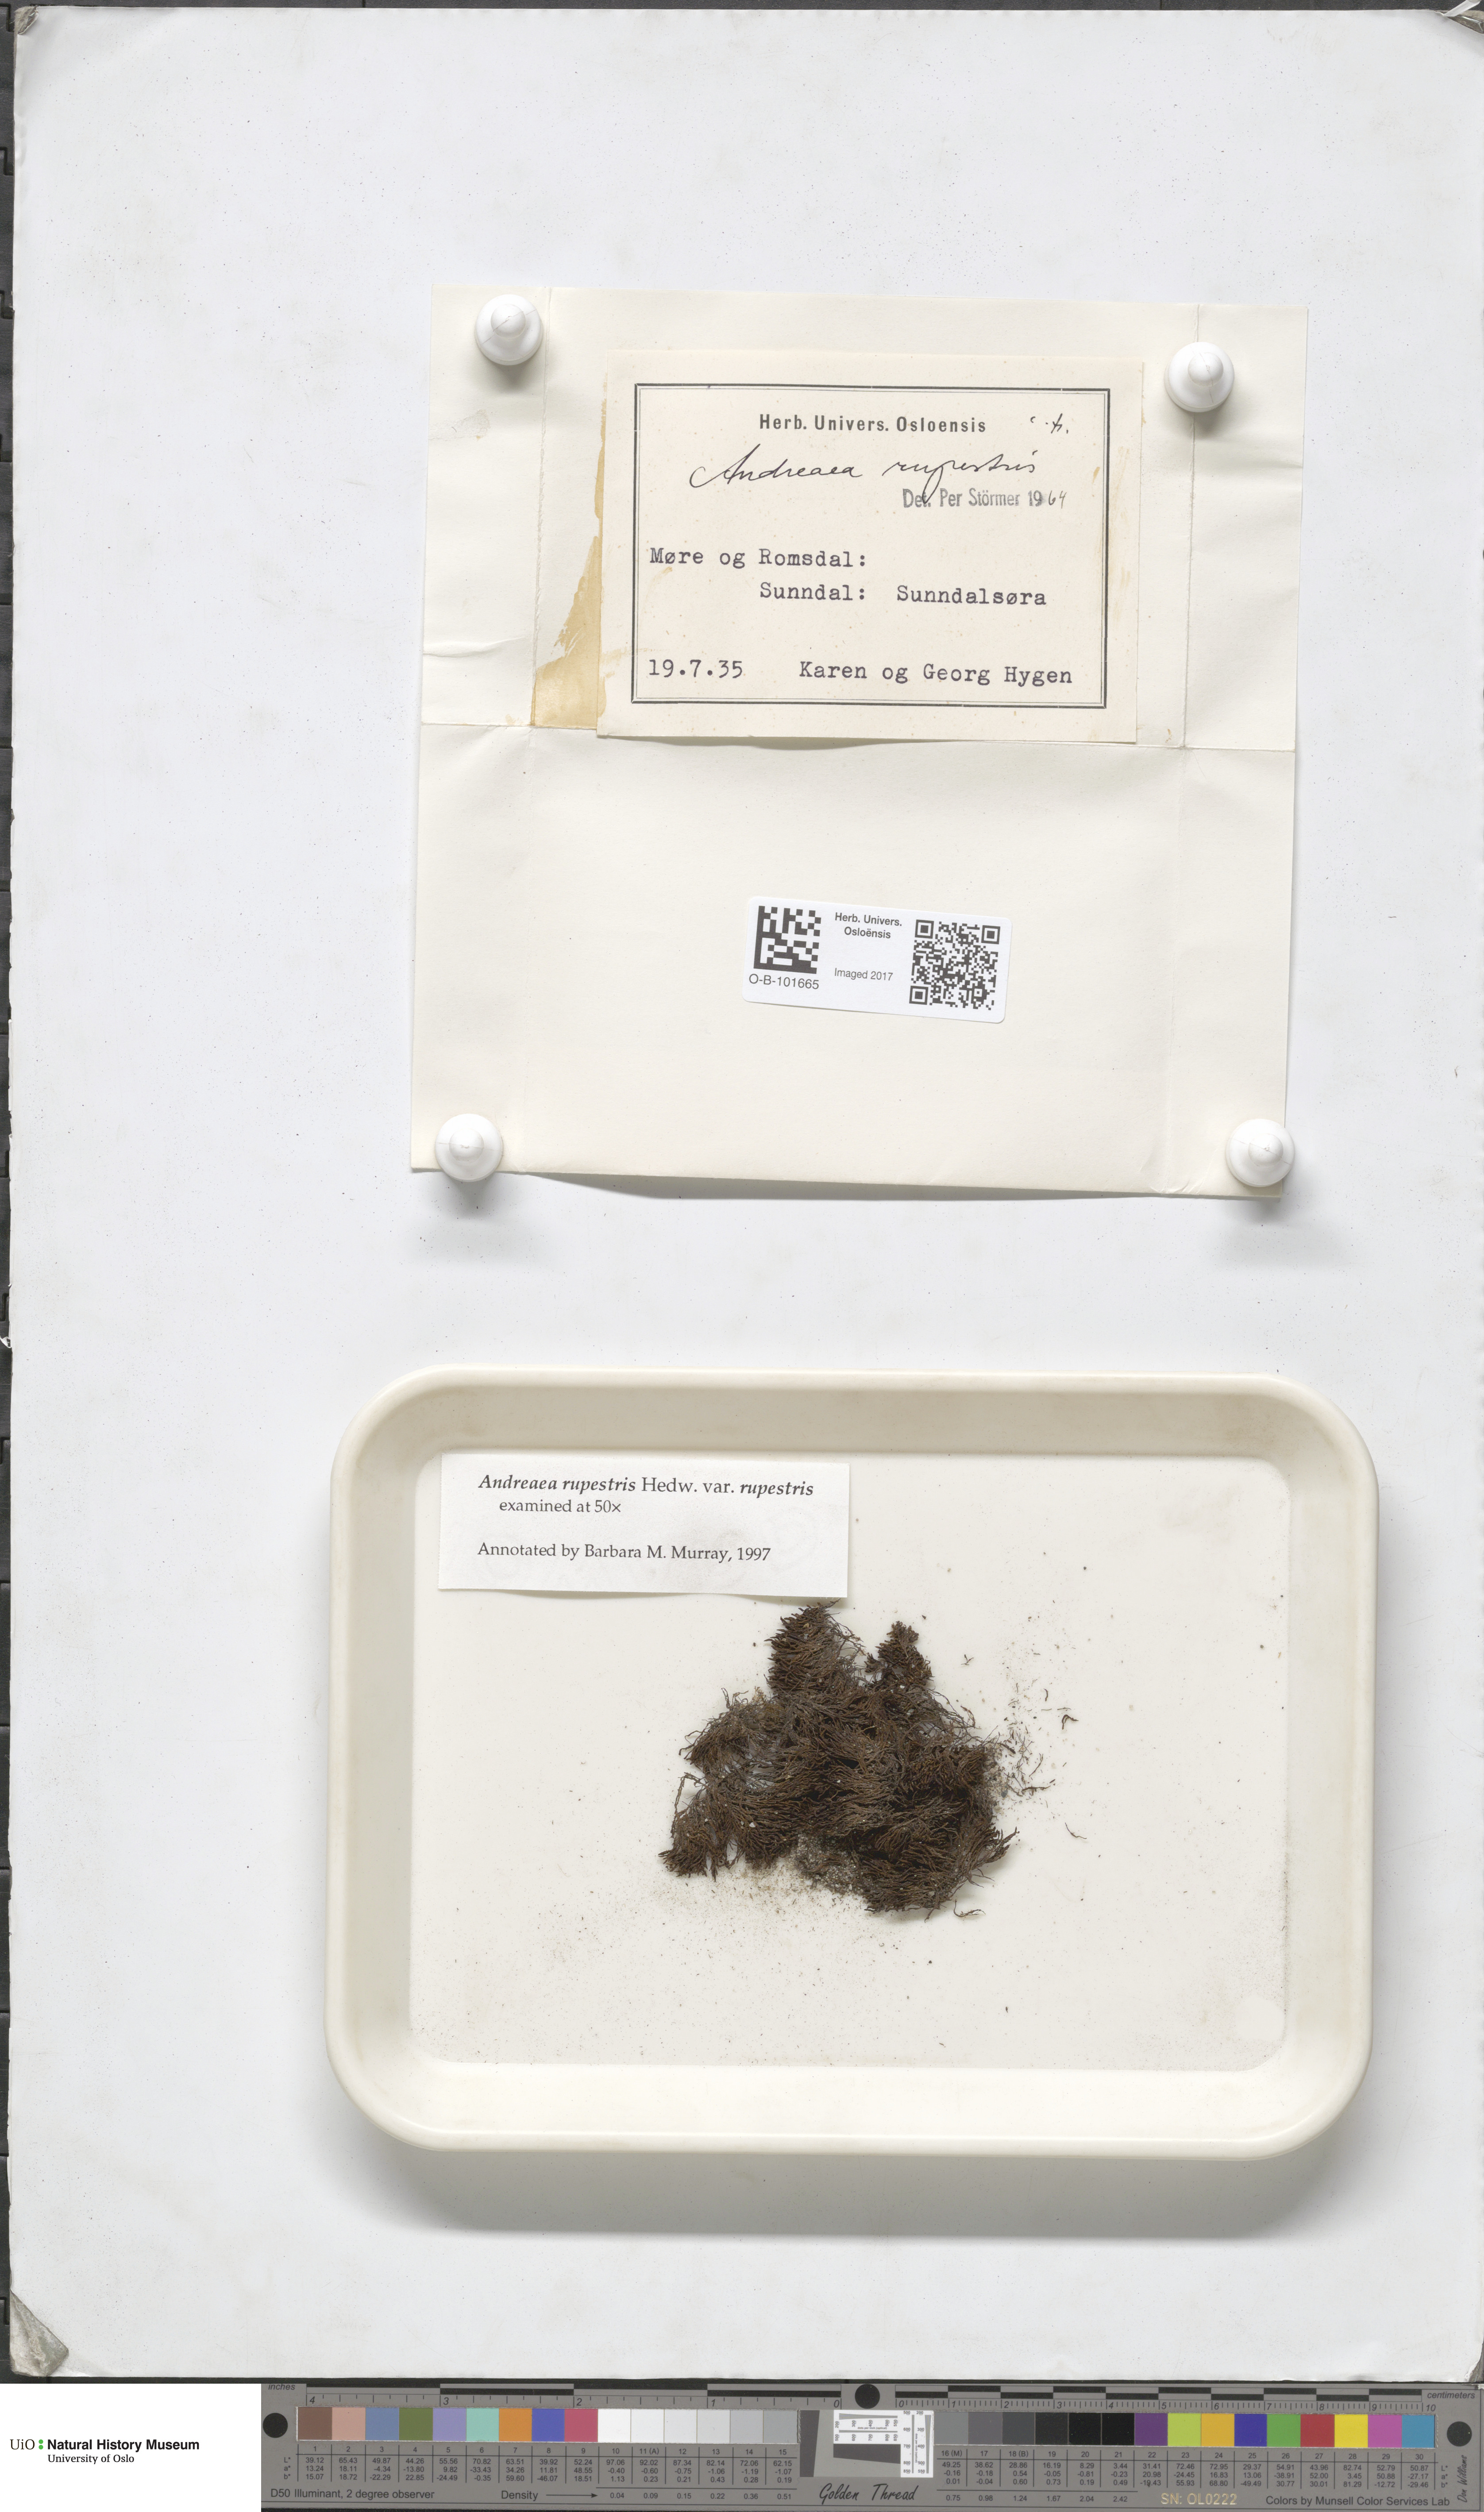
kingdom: Plantae
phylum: Bryophyta
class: Andreaeopsida
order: Andreaeales
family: Andreaeaceae
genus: Andreaea
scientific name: Andreaea rupestris
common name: Black rock moss
